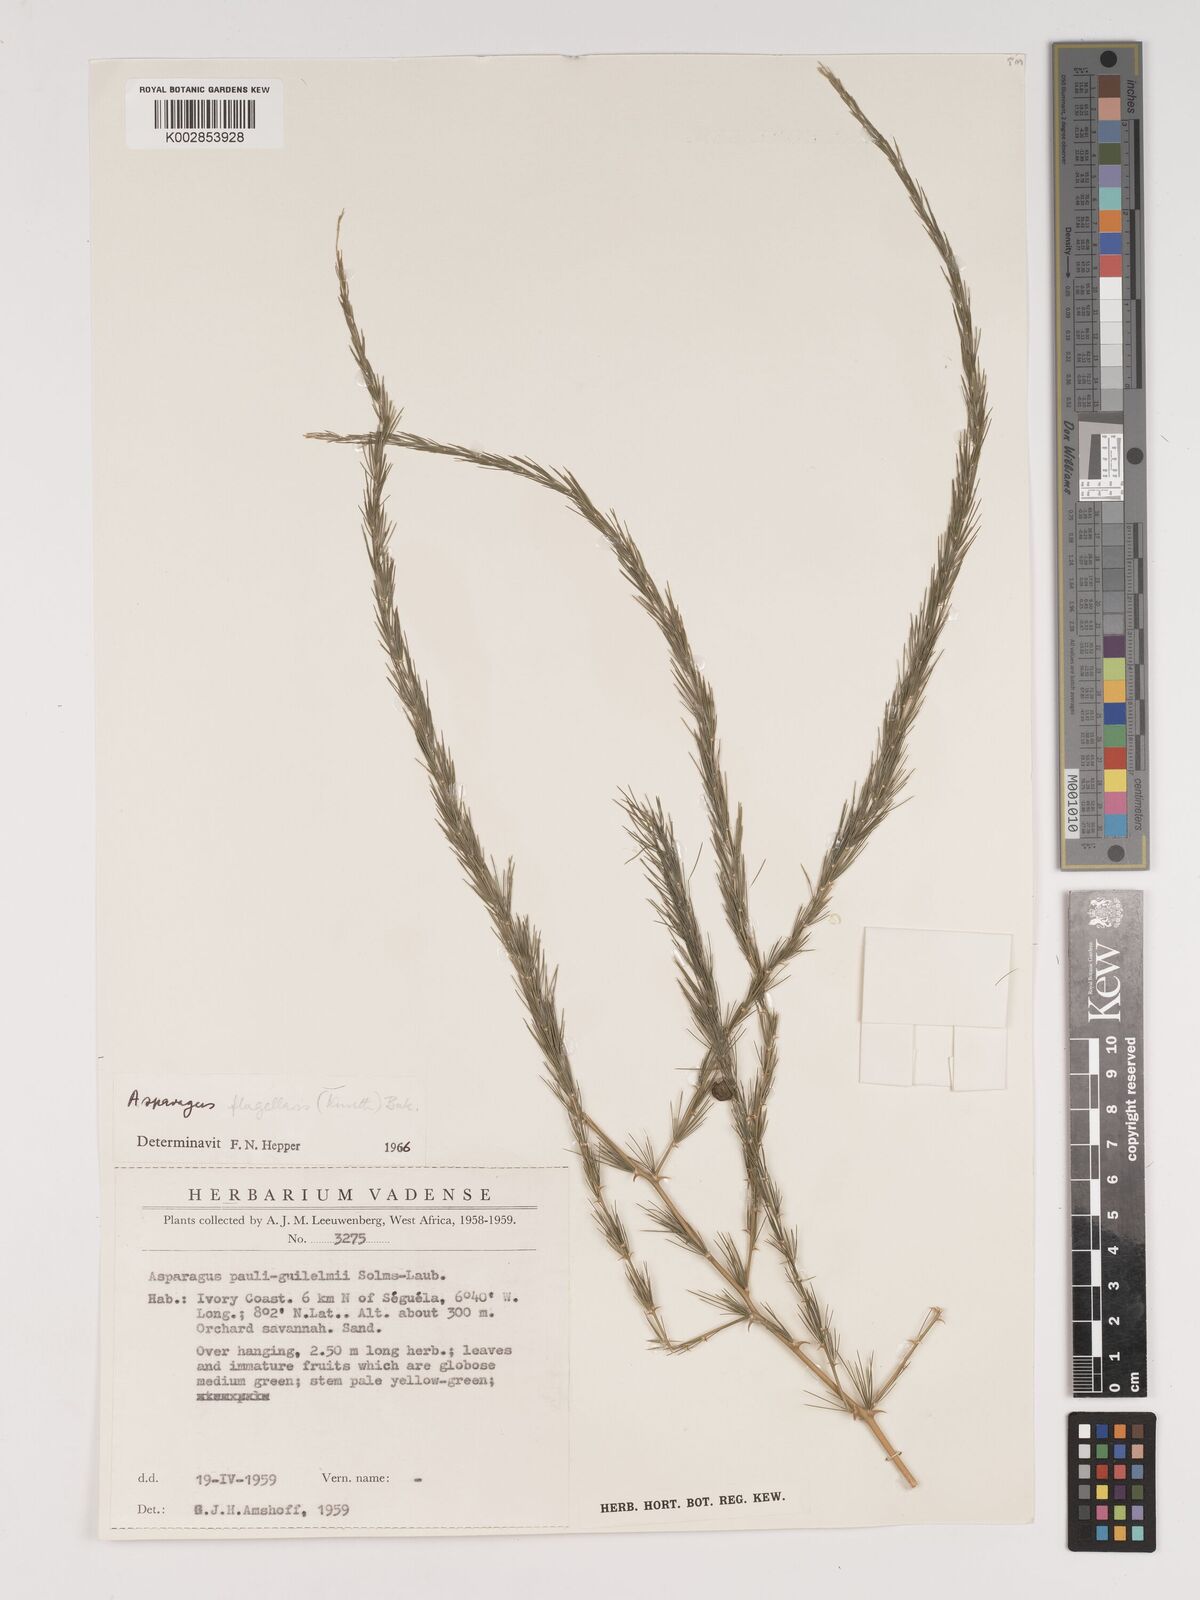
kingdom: Plantae
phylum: Tracheophyta
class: Liliopsida
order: Asparagales
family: Asparagaceae
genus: Asparagus
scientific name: Asparagus flagellaris
